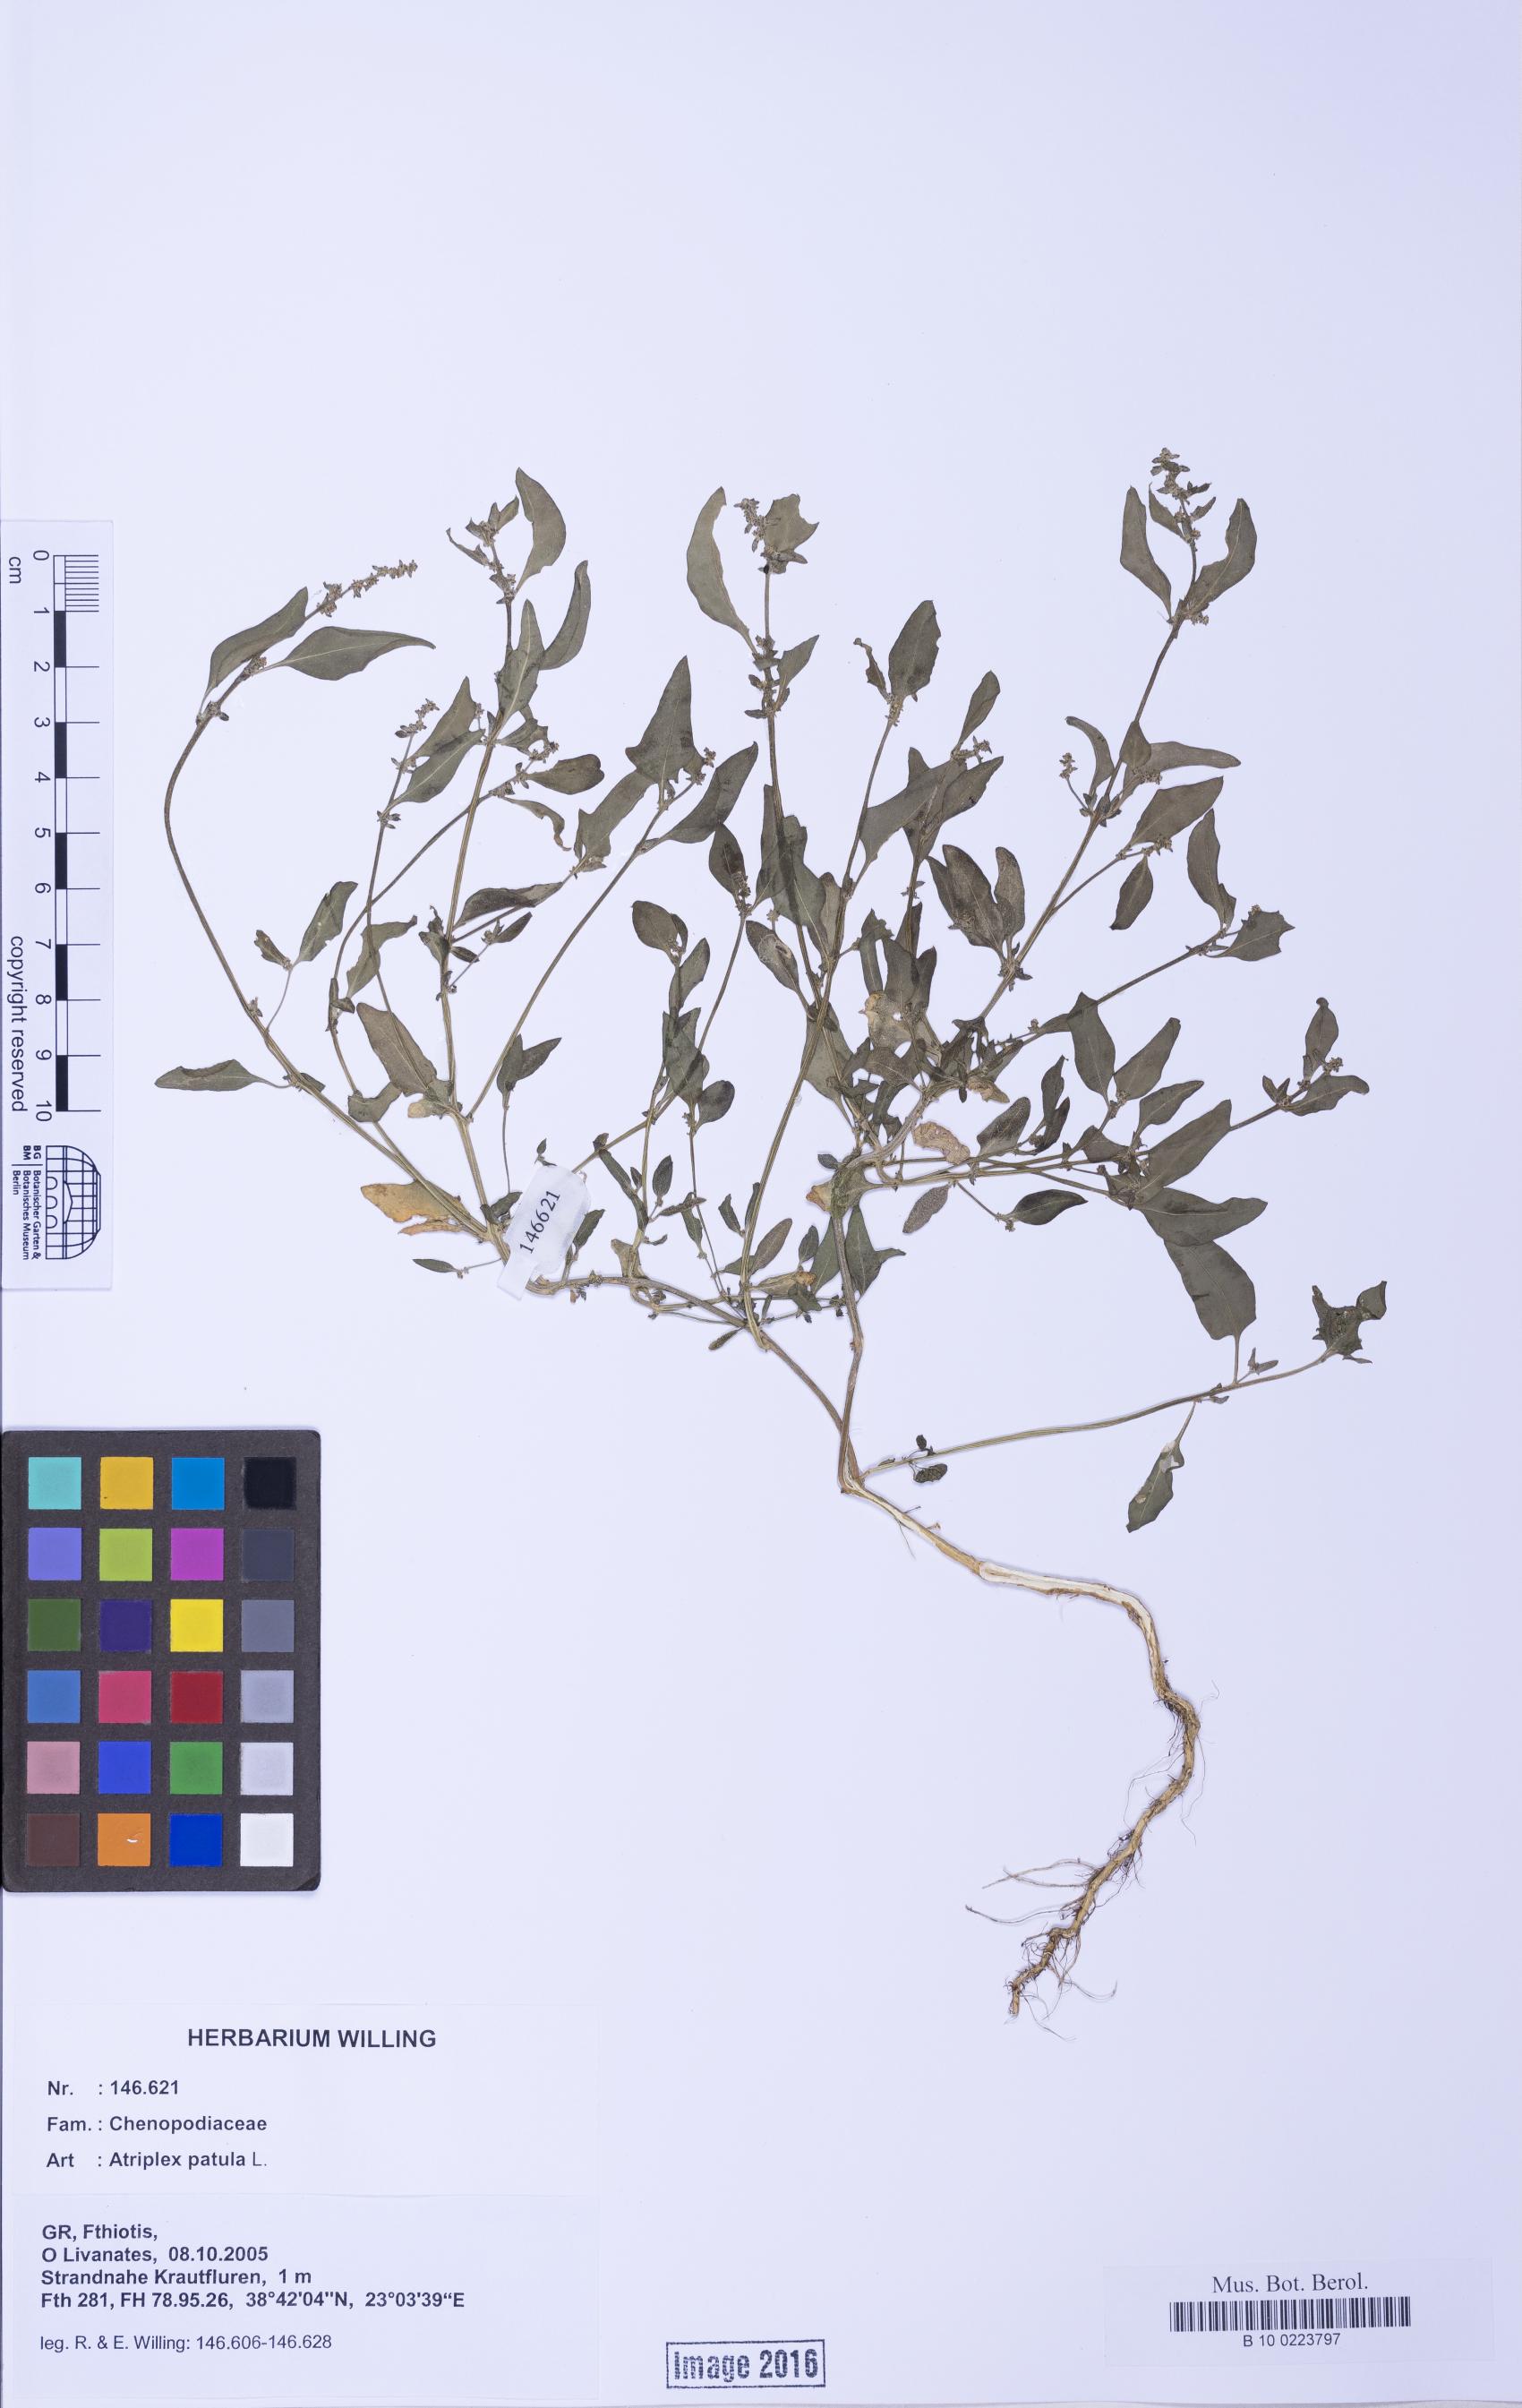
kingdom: Plantae
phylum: Tracheophyta
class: Magnoliopsida
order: Caryophyllales
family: Amaranthaceae
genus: Atriplex
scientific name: Atriplex prostrata
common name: Spear-leaved orache
